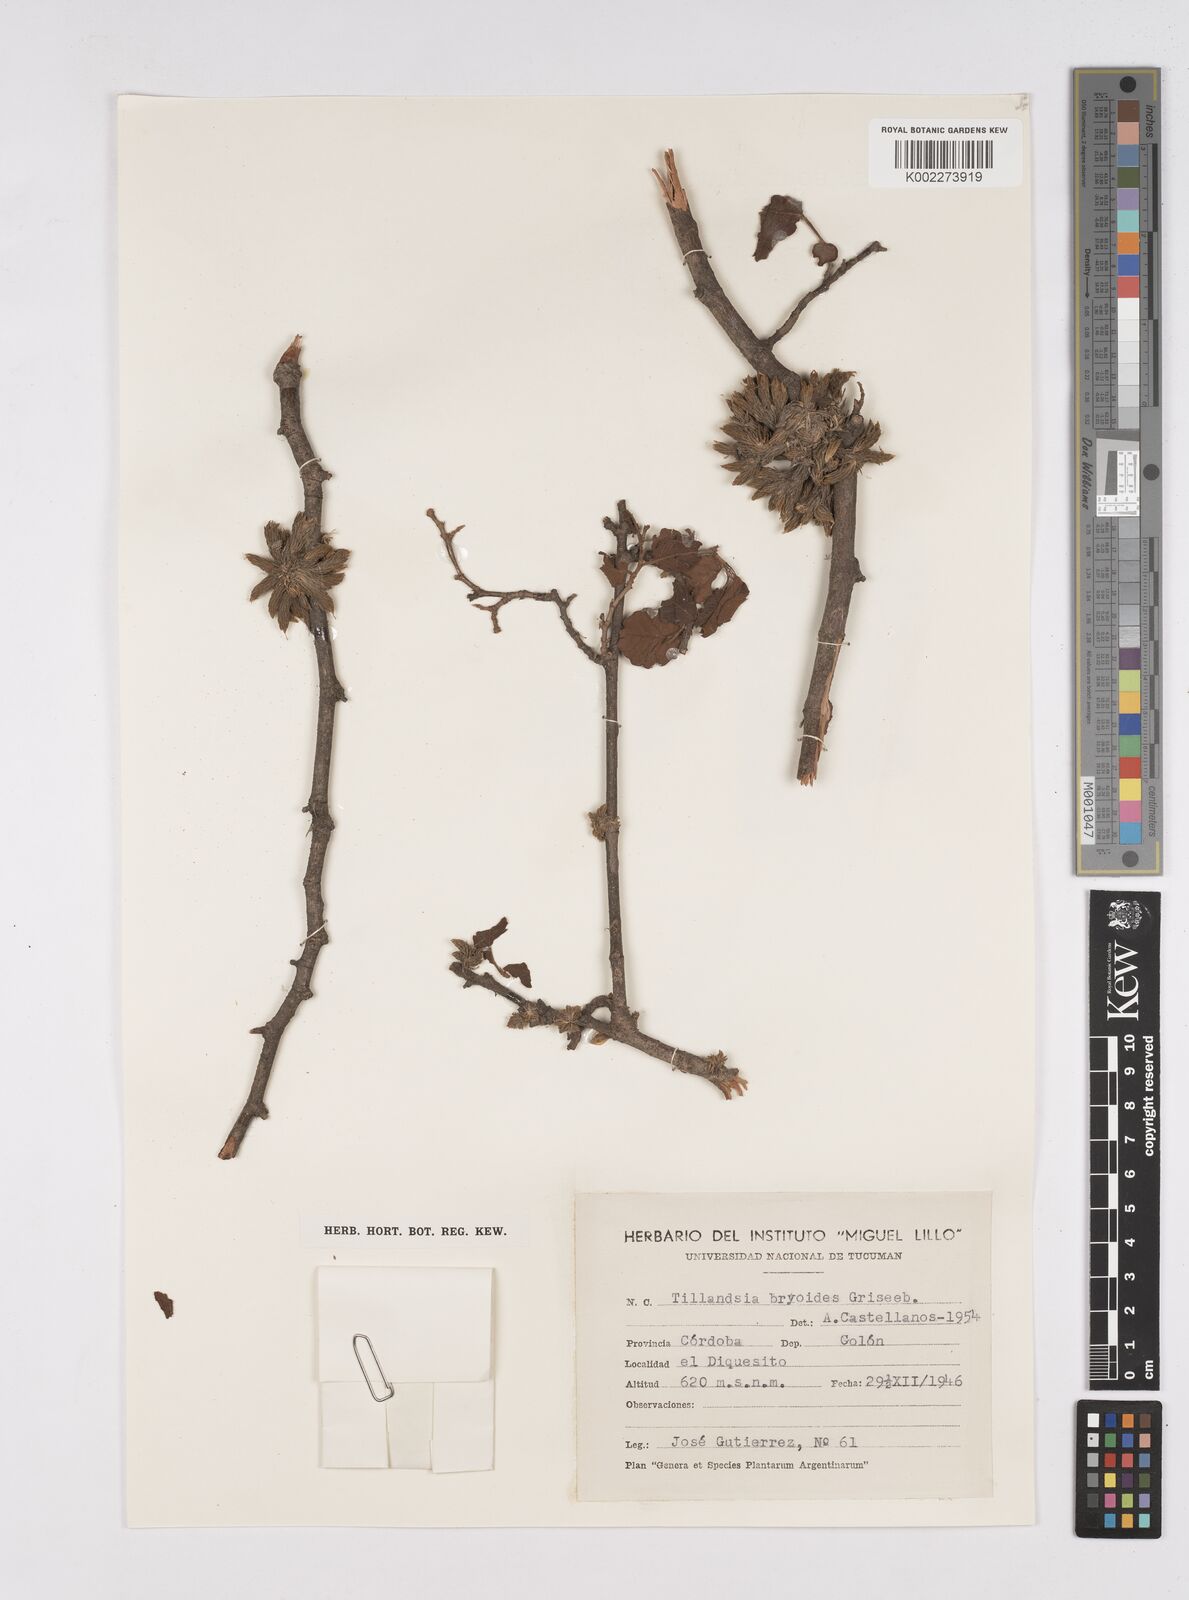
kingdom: Plantae
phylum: Tracheophyta
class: Liliopsida
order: Poales
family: Bromeliaceae
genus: Tillandsia
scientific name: Tillandsia tricholepis
